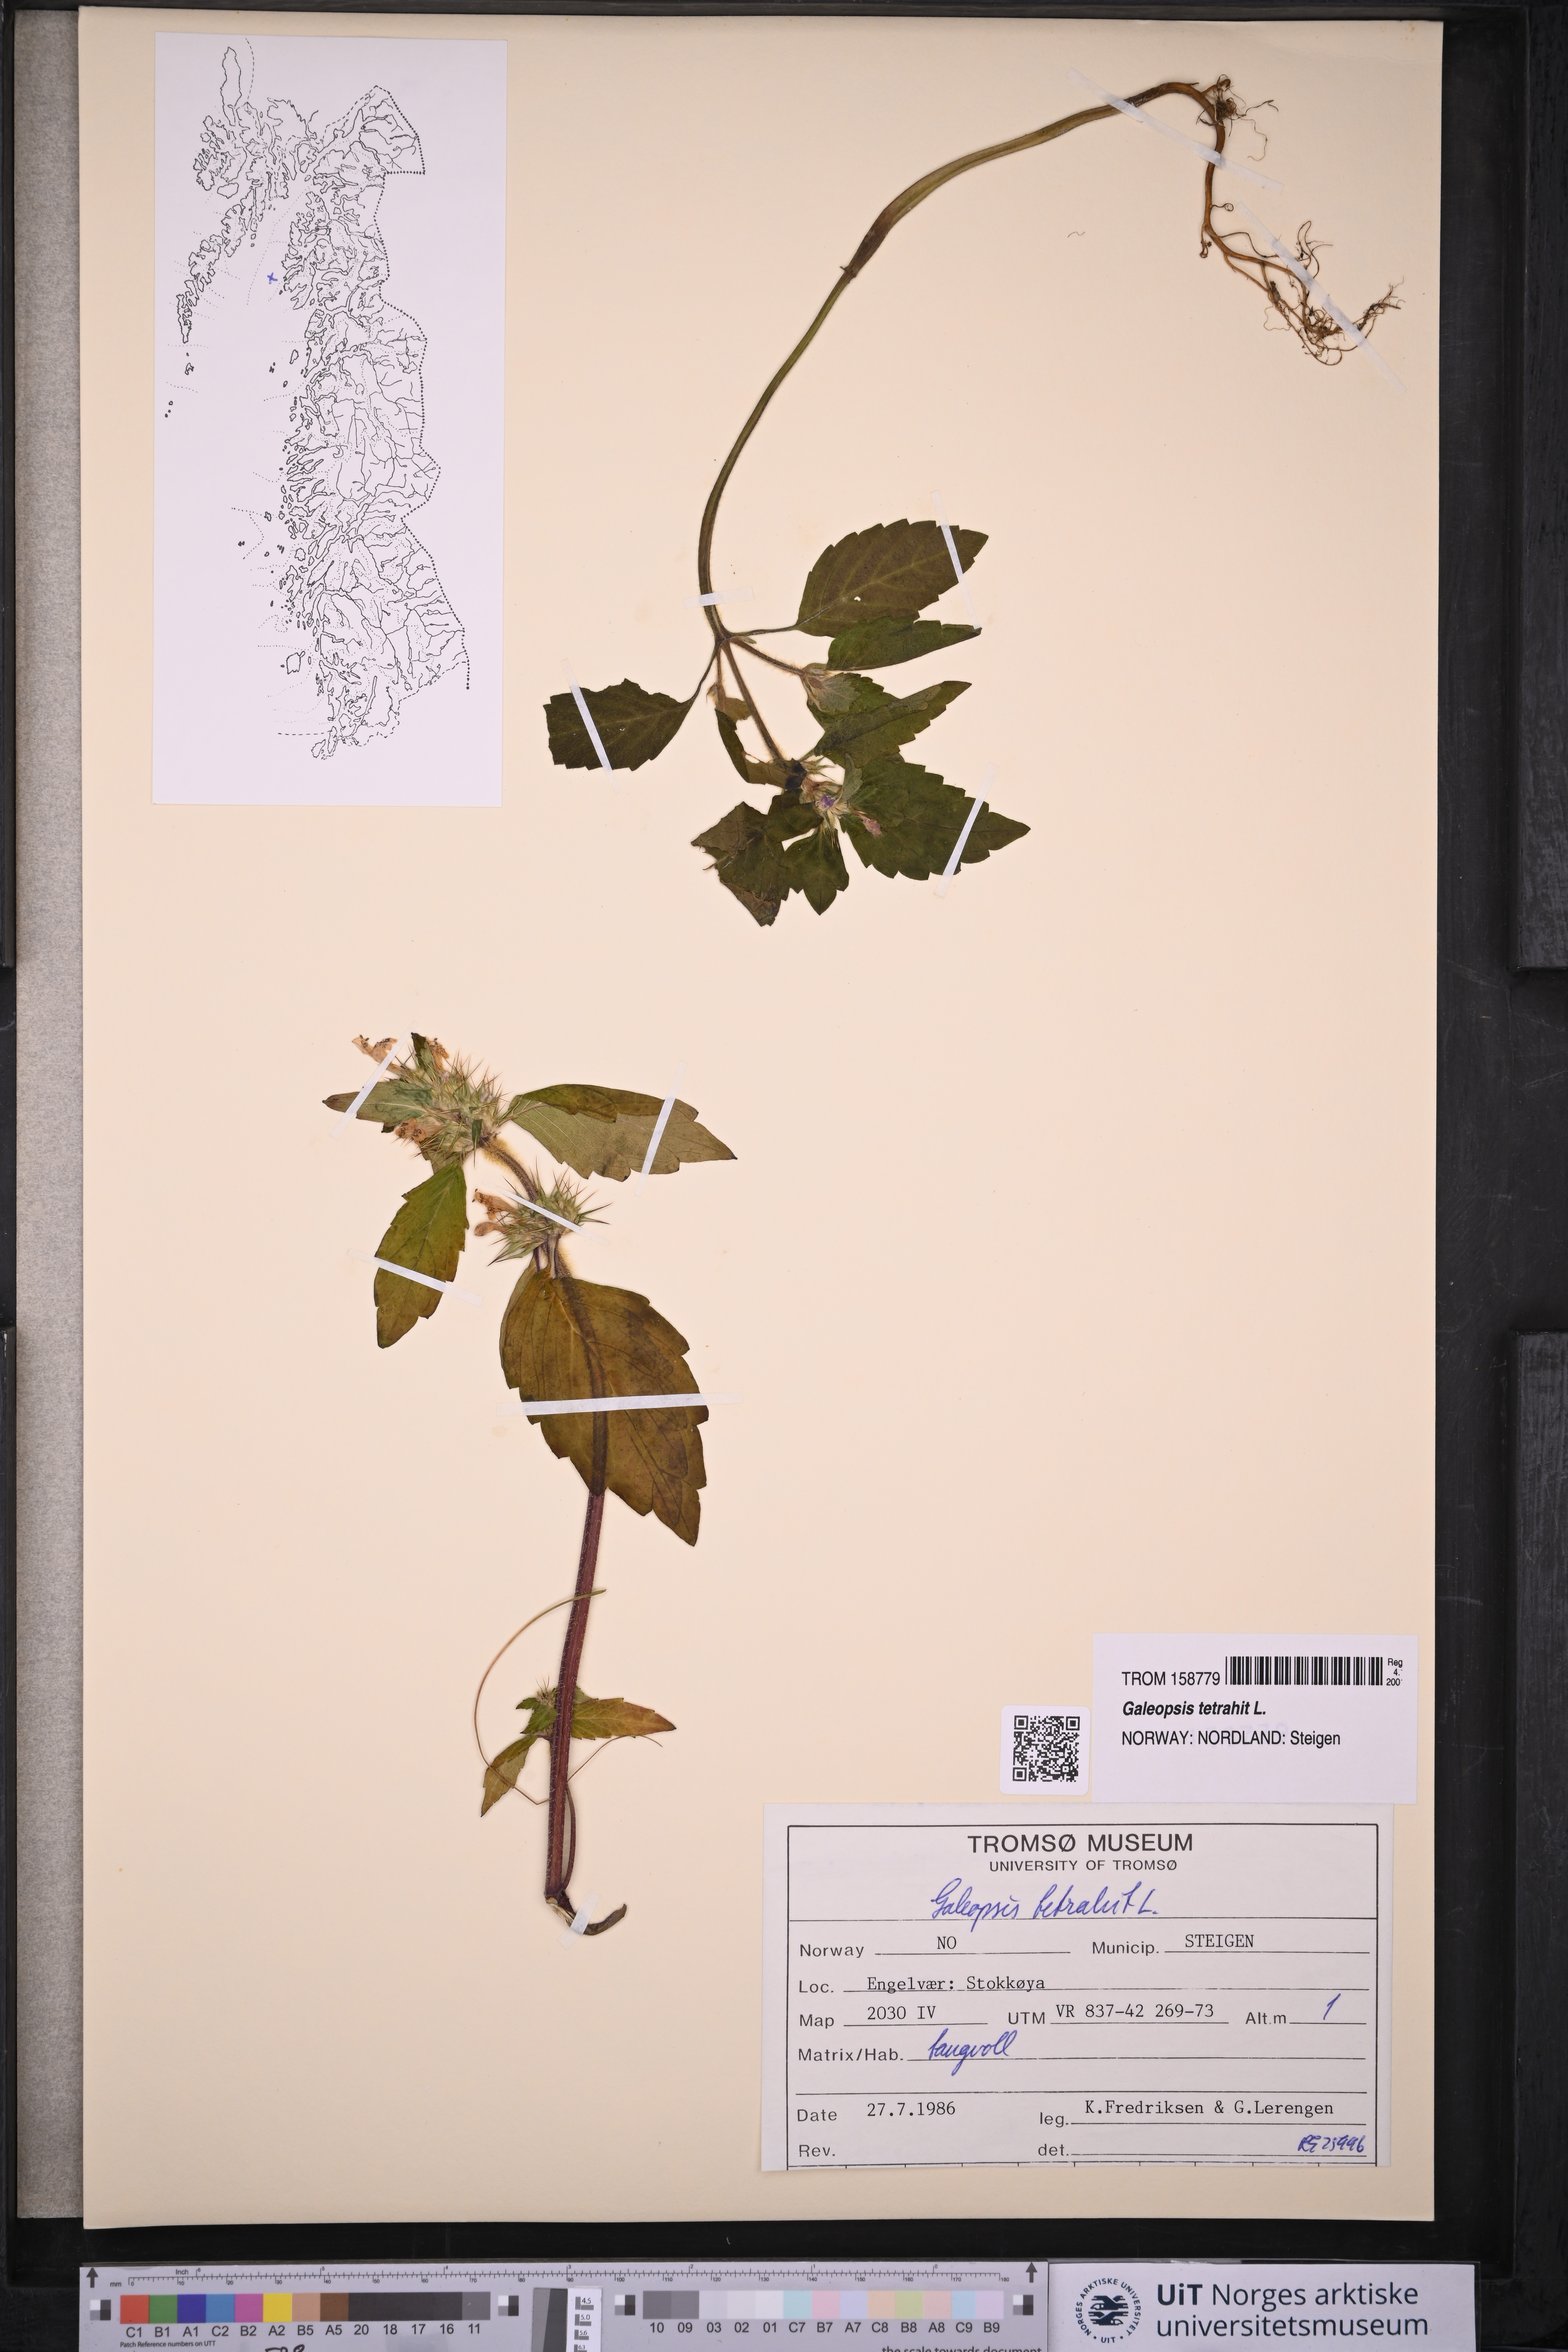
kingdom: Plantae
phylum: Tracheophyta
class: Magnoliopsida
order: Lamiales
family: Lamiaceae
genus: Galeopsis
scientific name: Galeopsis tetrahit
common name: Common hemp-nettle
